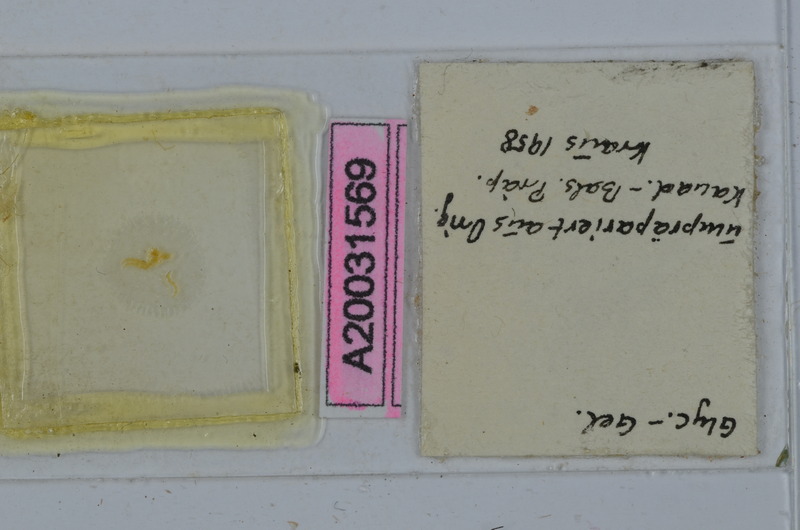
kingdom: Animalia
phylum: Arthropoda
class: Diplopoda
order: Spirostreptida
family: Spirostreptidae
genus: Nanostreptus
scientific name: Nanostreptus armatus
